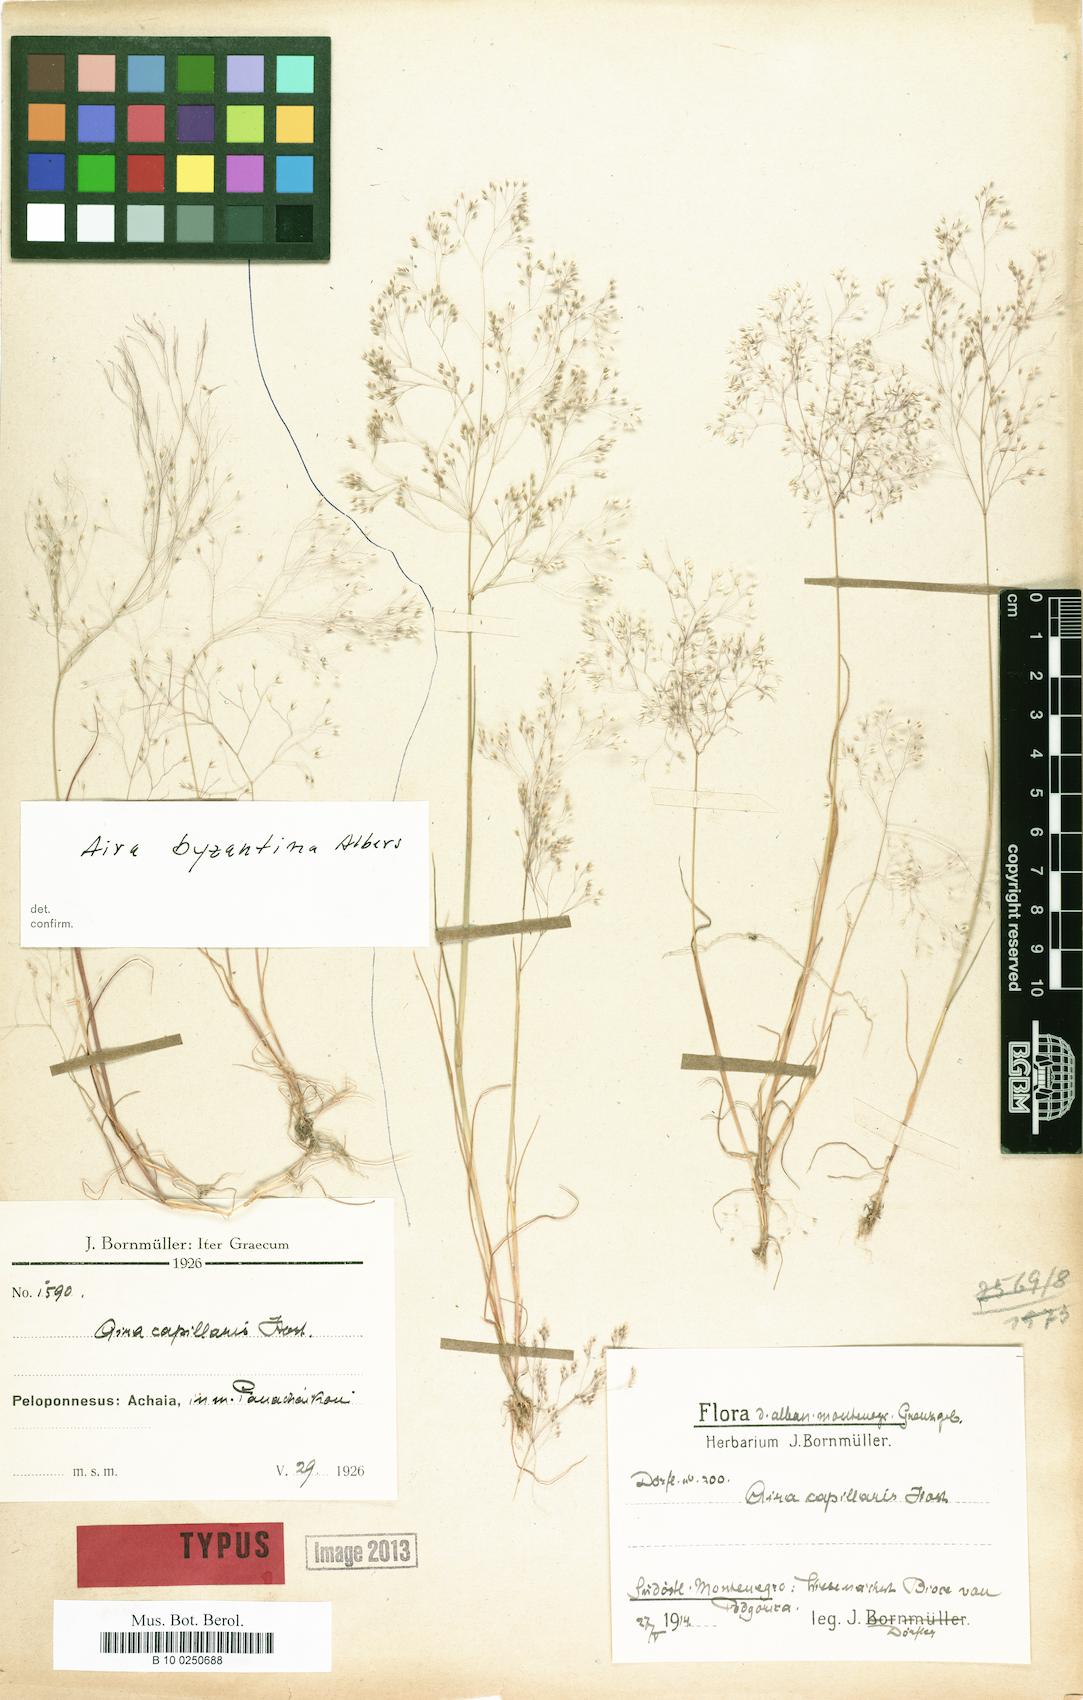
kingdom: Plantae
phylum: Tracheophyta
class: Liliopsida
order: Poales
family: Poaceae
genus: Aira
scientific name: Aira elegans
